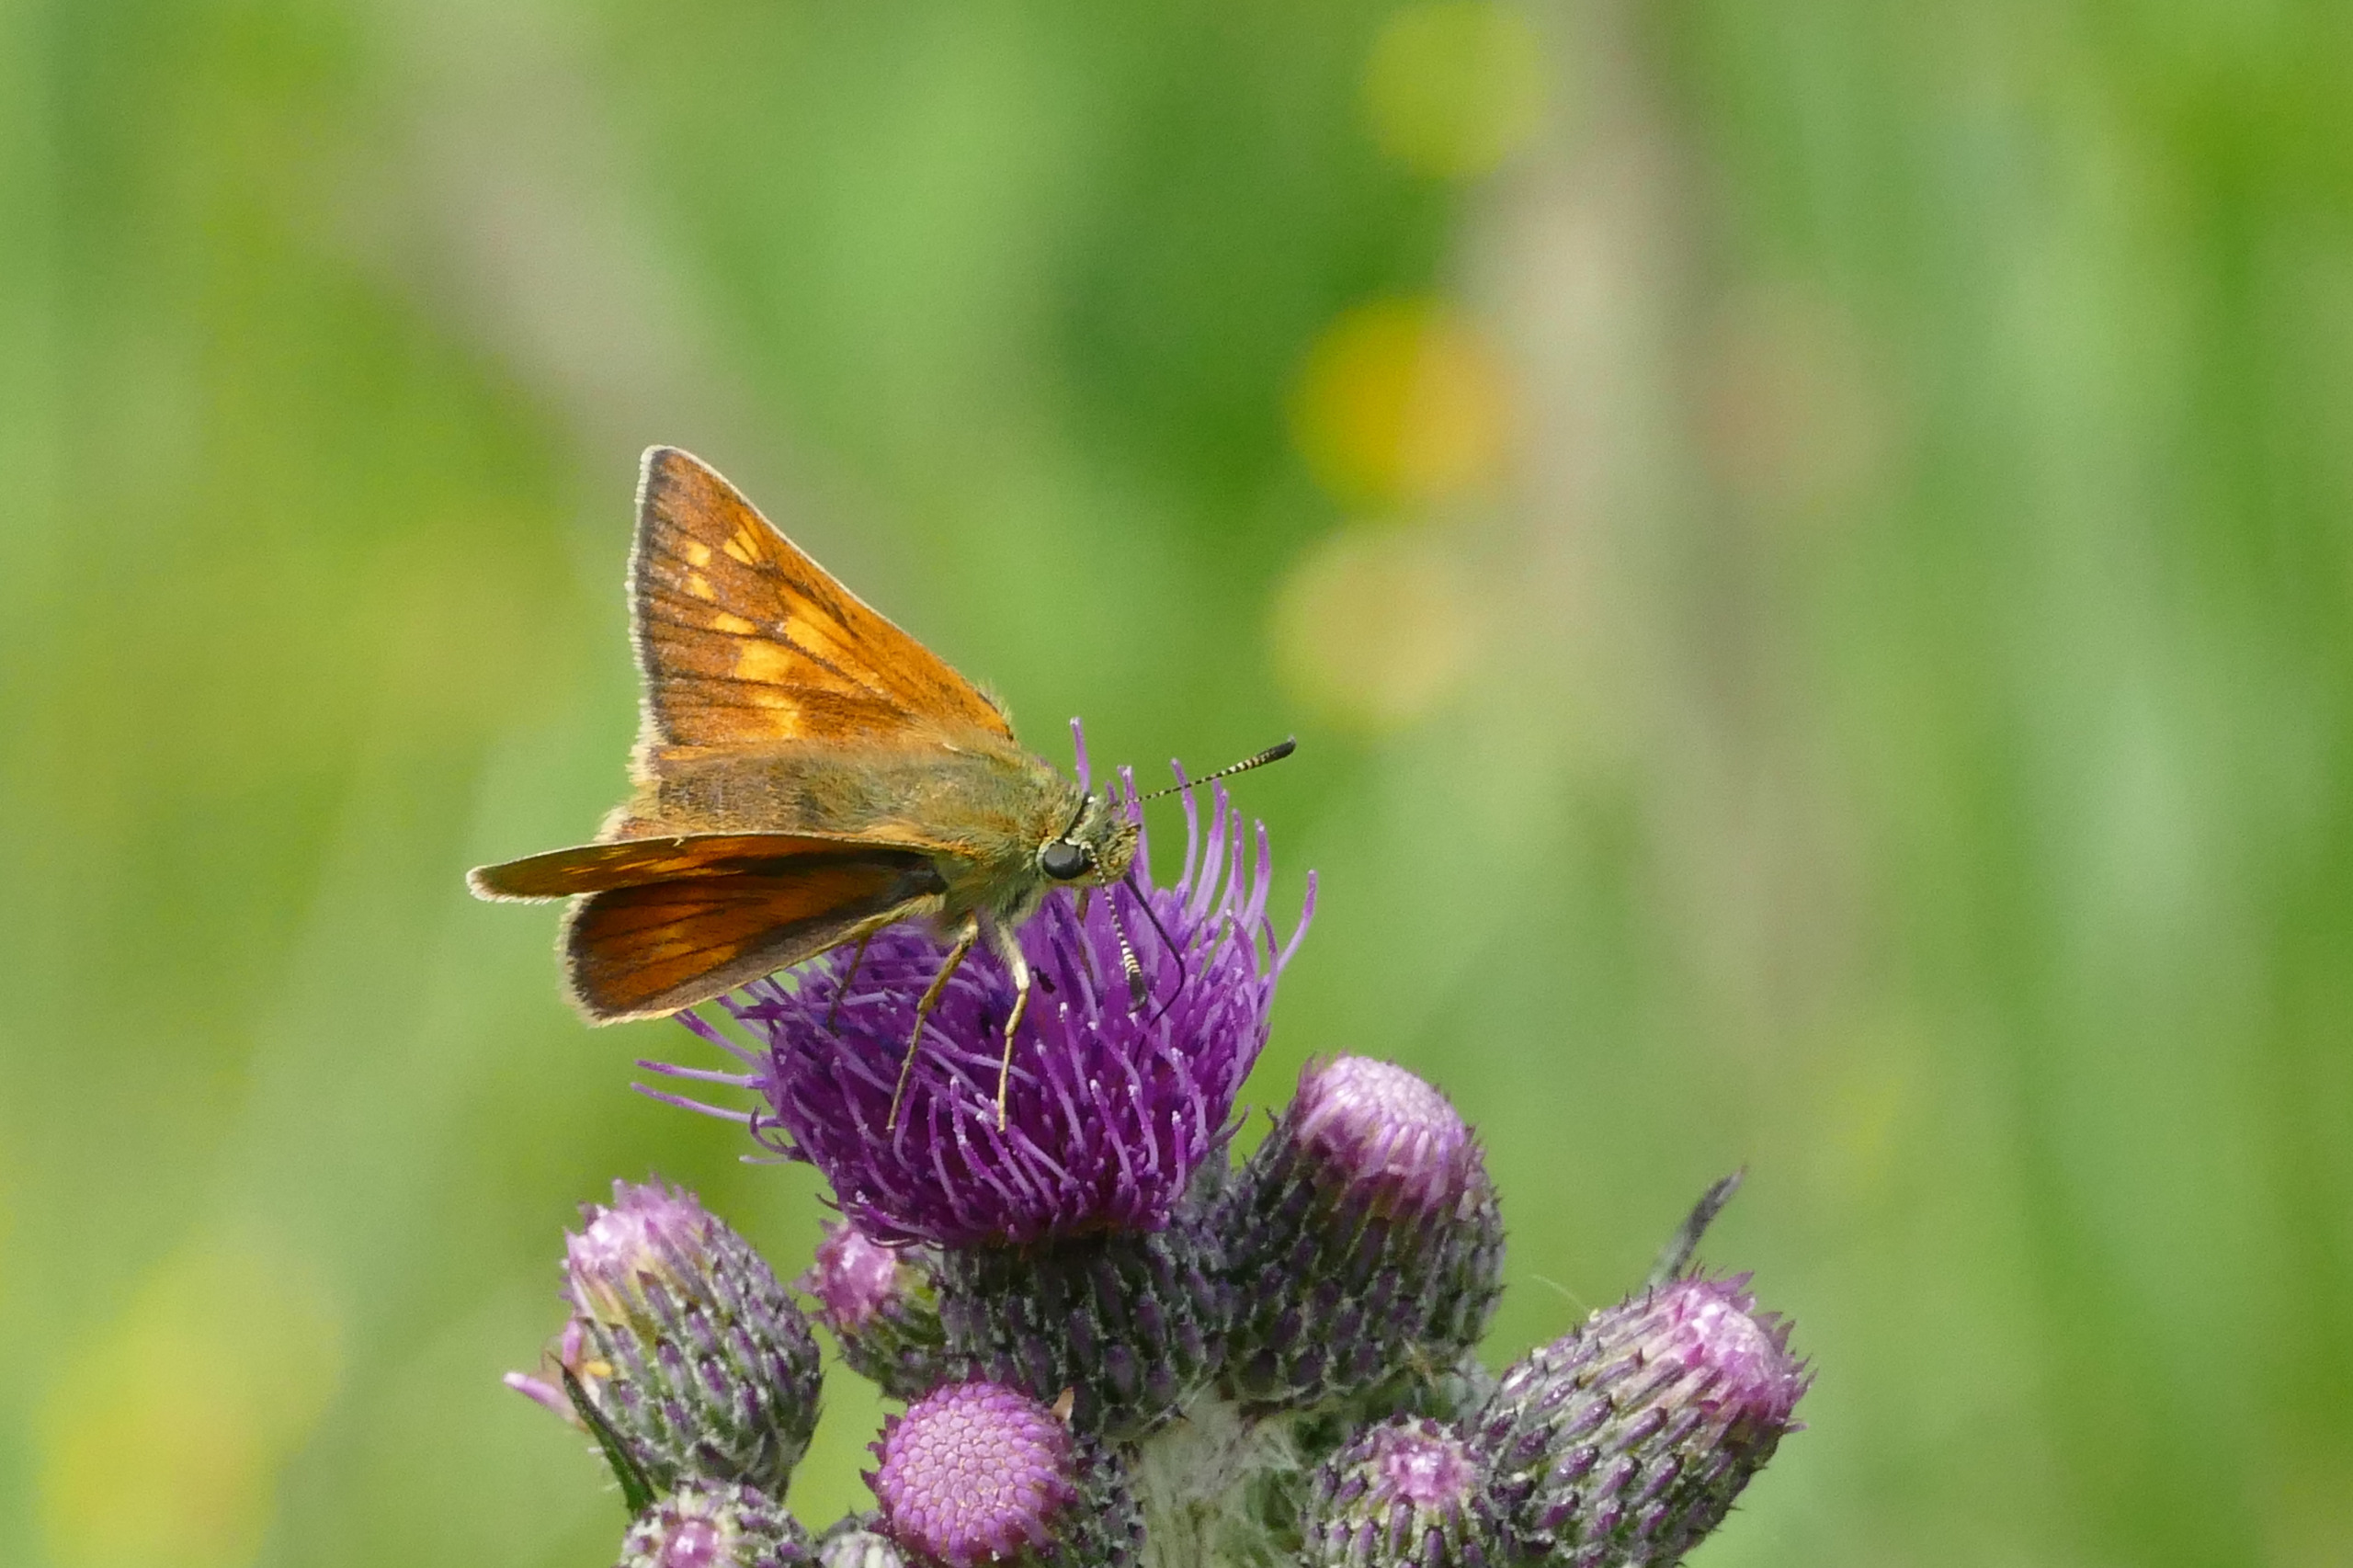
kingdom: Animalia
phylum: Arthropoda
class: Insecta
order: Lepidoptera
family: Hesperiidae
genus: Ochlodes
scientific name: Ochlodes venata
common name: Stor bredpande
